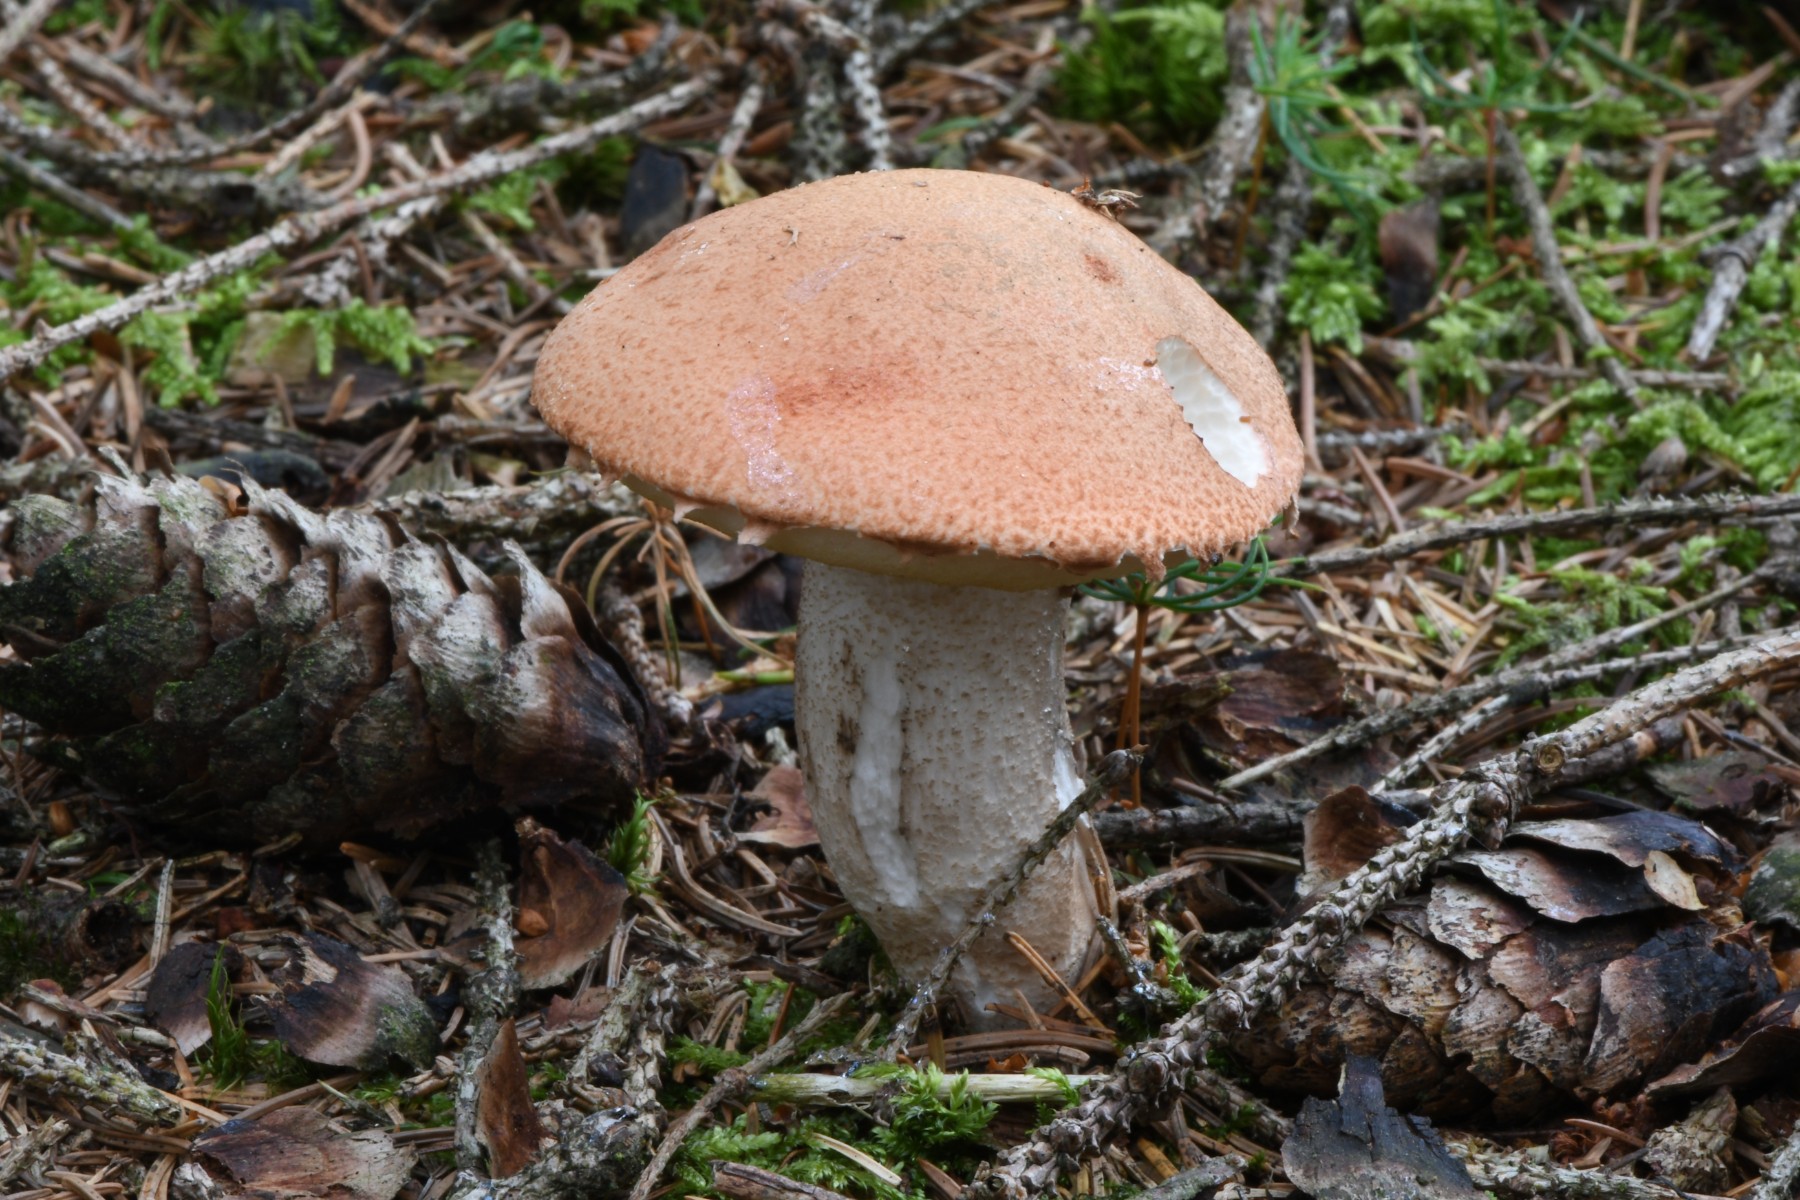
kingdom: Fungi
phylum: Basidiomycota
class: Agaricomycetes
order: Boletales
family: Boletaceae
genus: Leccinum
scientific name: Leccinum vulpinum
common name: fyrre-skælrørhat
